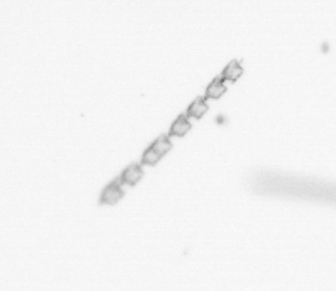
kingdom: Chromista
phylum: Ochrophyta
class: Bacillariophyceae
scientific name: Bacillariophyceae
